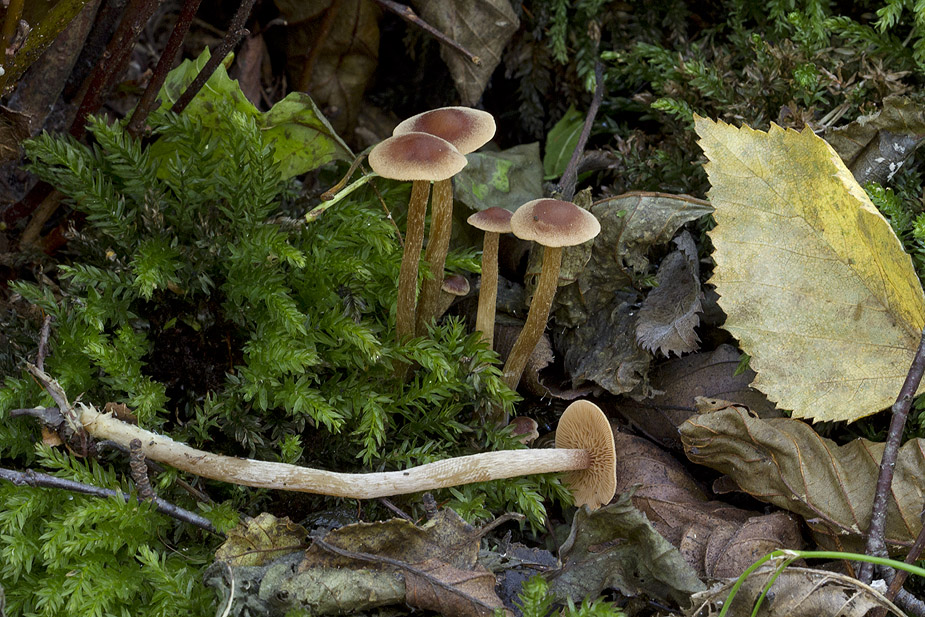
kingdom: Fungi
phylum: Basidiomycota
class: Agaricomycetes
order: Agaricales
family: Hymenogastraceae
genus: Naucoria
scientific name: Naucoria sphagneti
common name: lysrandet knaphat
